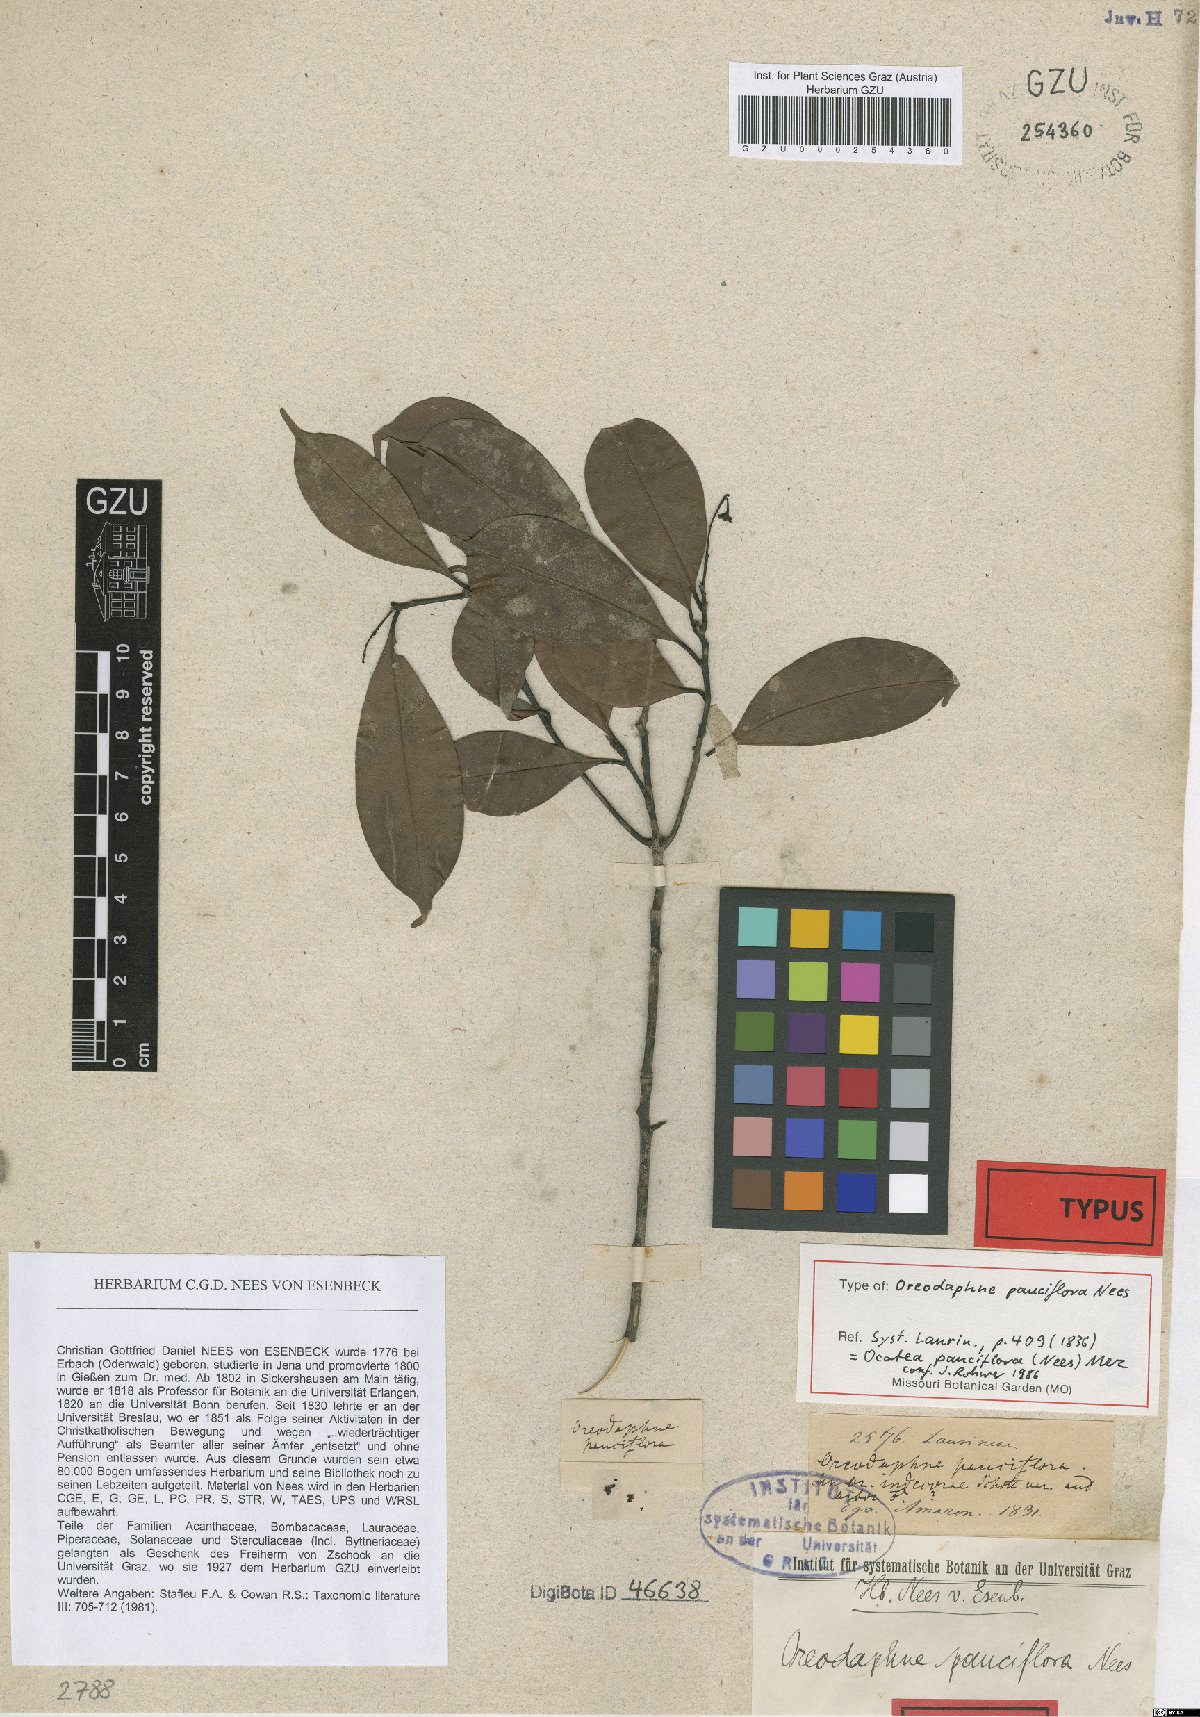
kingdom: Plantae
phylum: Tracheophyta
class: Magnoliopsida
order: Laurales
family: Lauraceae
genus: Ocotea
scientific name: Ocotea pauciflora
